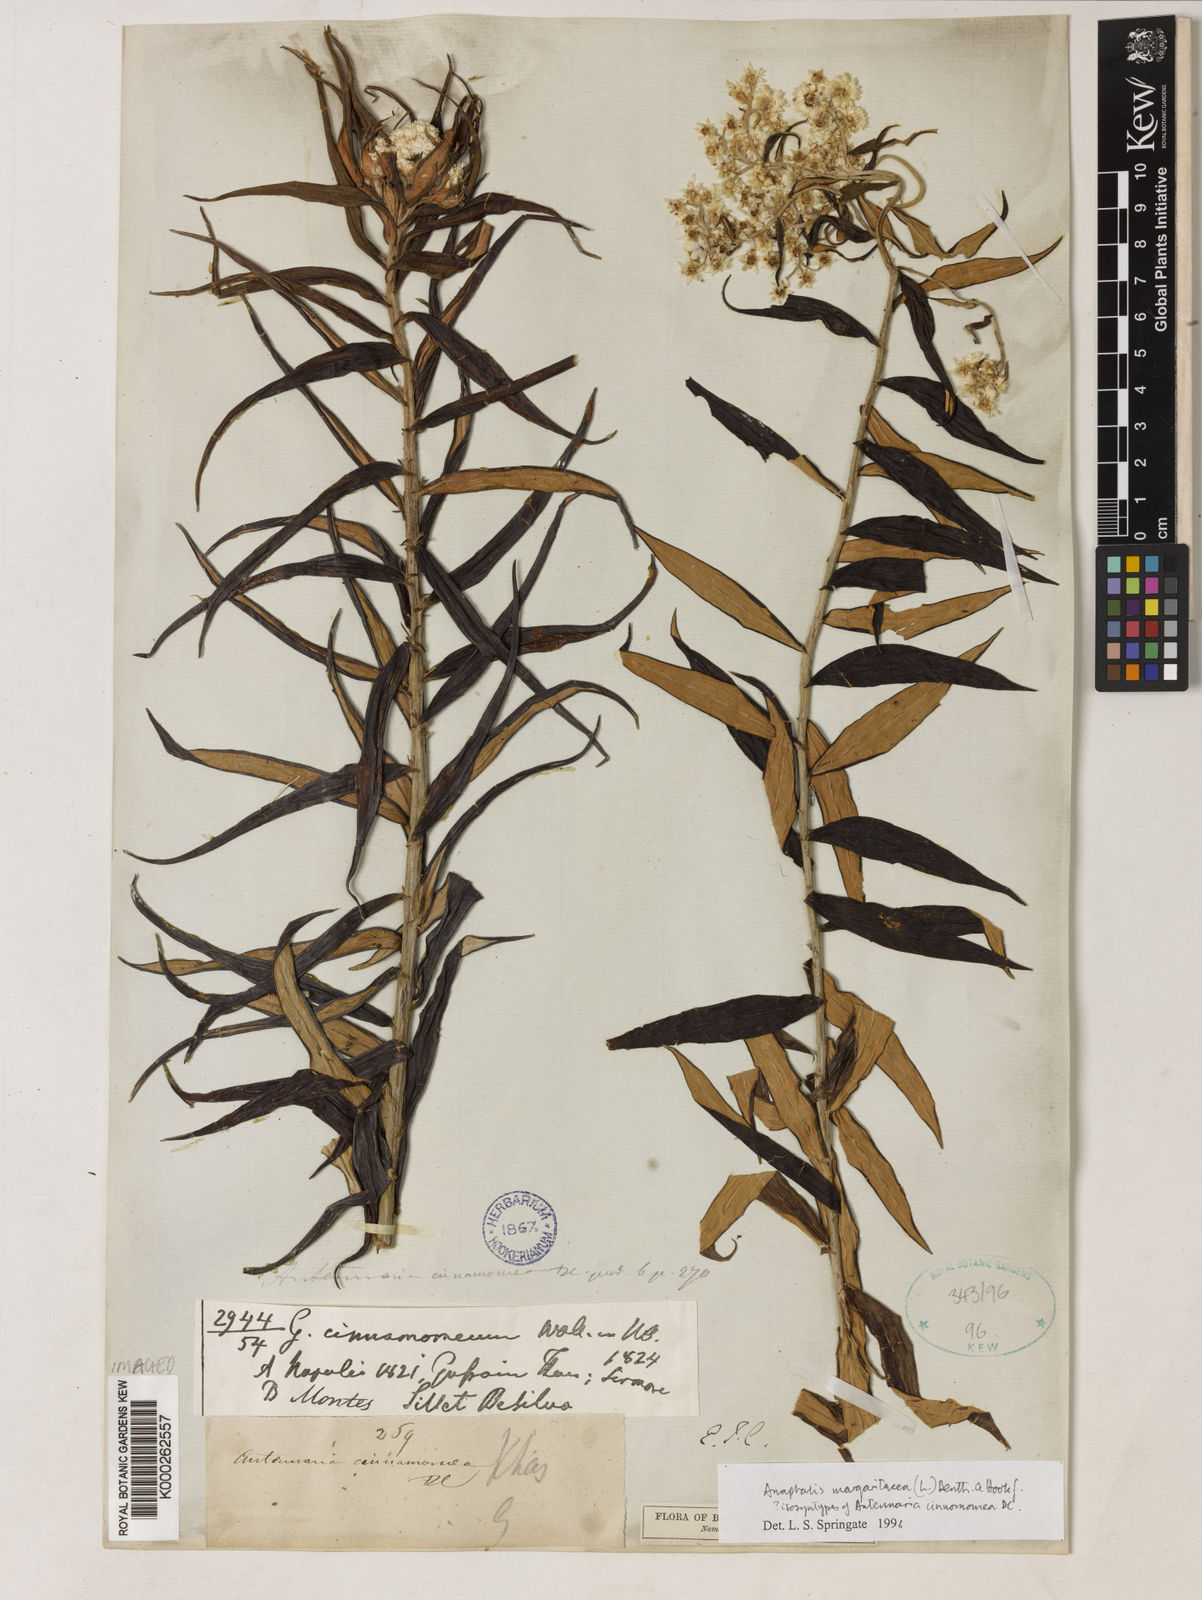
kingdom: Plantae
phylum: Tracheophyta
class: Magnoliopsida
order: Asterales
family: Asteraceae
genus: Anaphalis
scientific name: Anaphalis margaritacea
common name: Pearly everlasting
